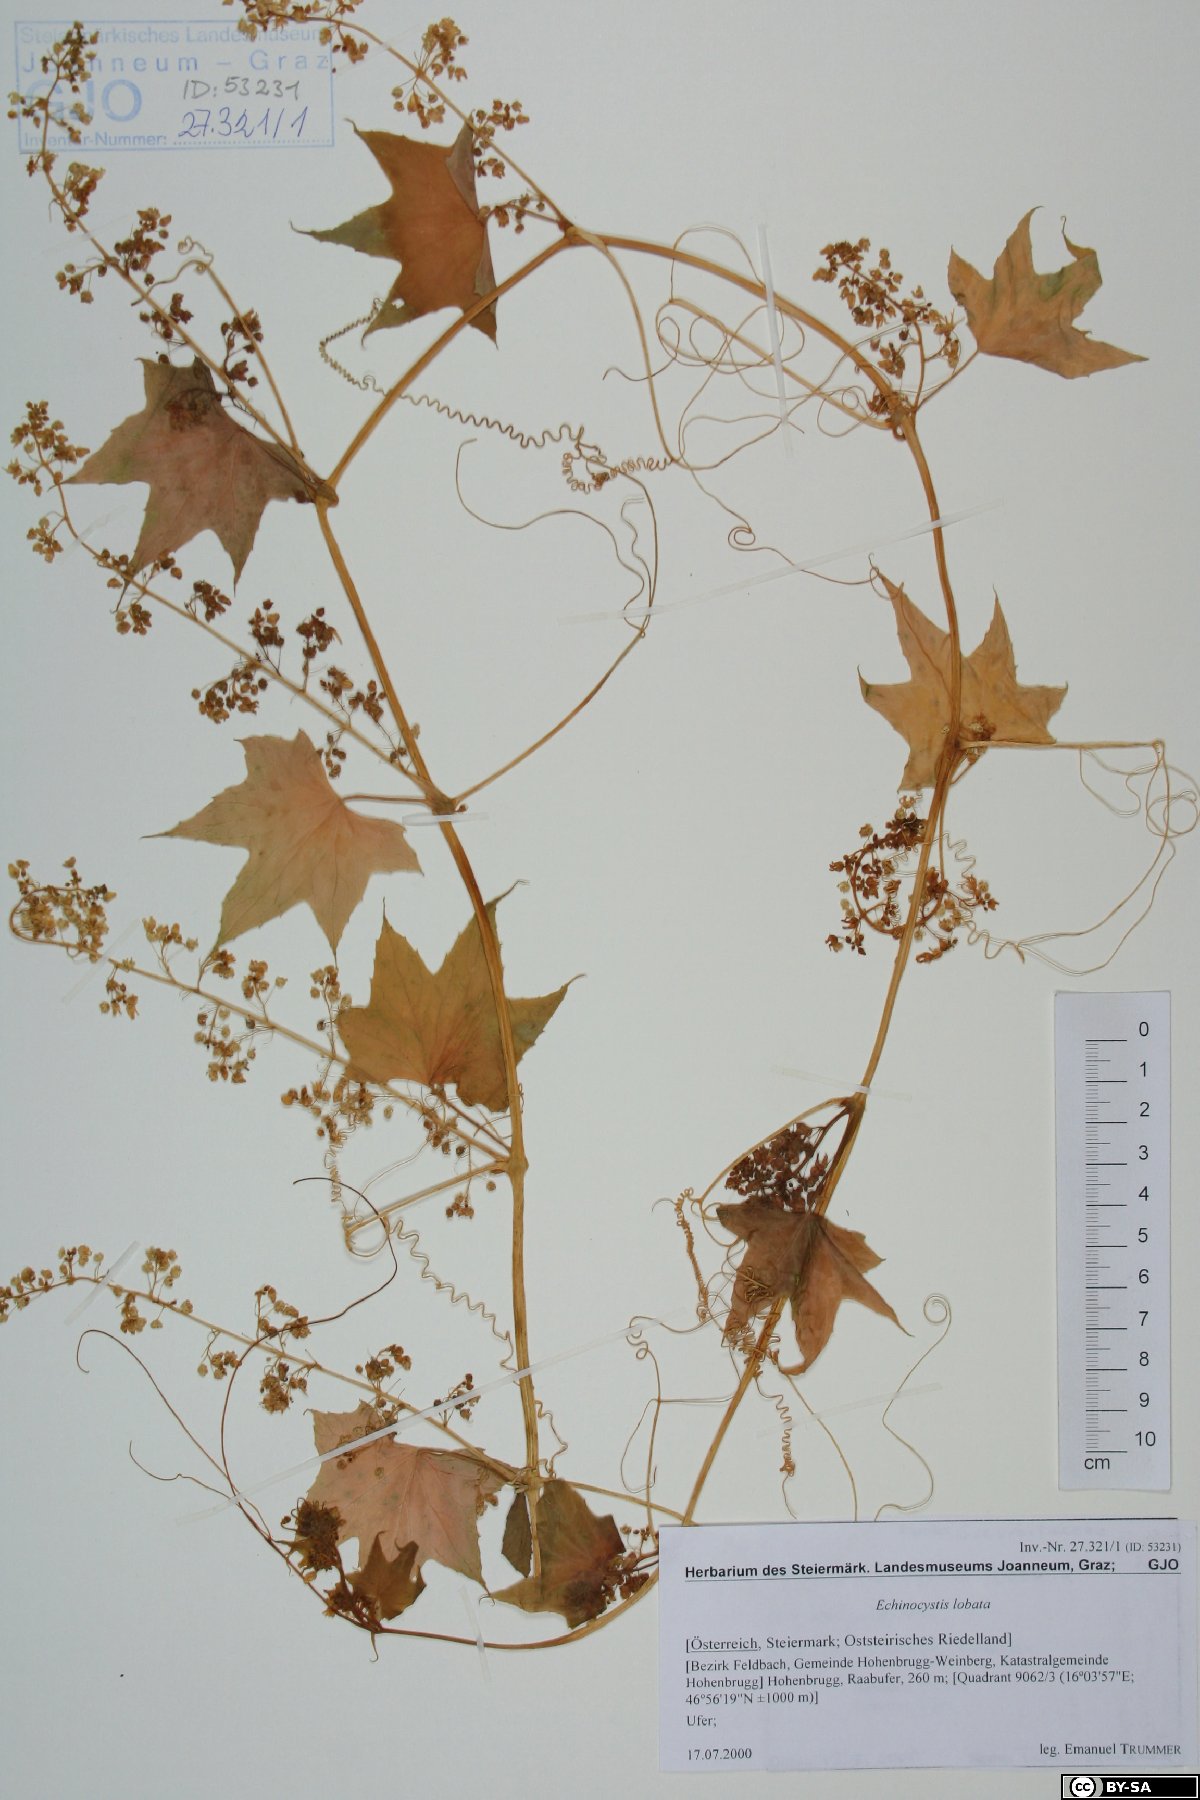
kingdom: Plantae
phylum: Tracheophyta
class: Magnoliopsida
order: Cucurbitales
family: Cucurbitaceae
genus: Echinocystis
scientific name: Echinocystis lobata
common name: Wild cucumber
